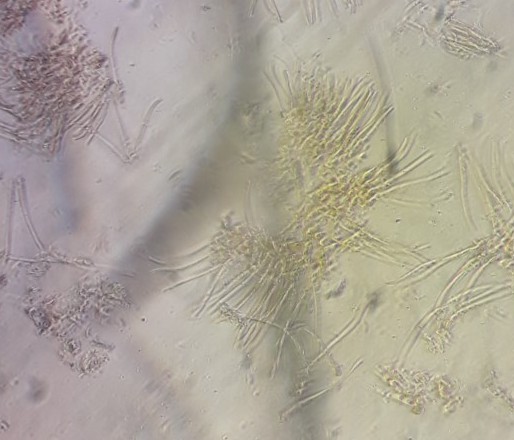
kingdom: Fungi
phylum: Ascomycota
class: Leotiomycetes
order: Rhytismatales
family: Rhytismataceae
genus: Lophodermium
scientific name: Lophodermium pinastri
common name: fyrre-fureplet
